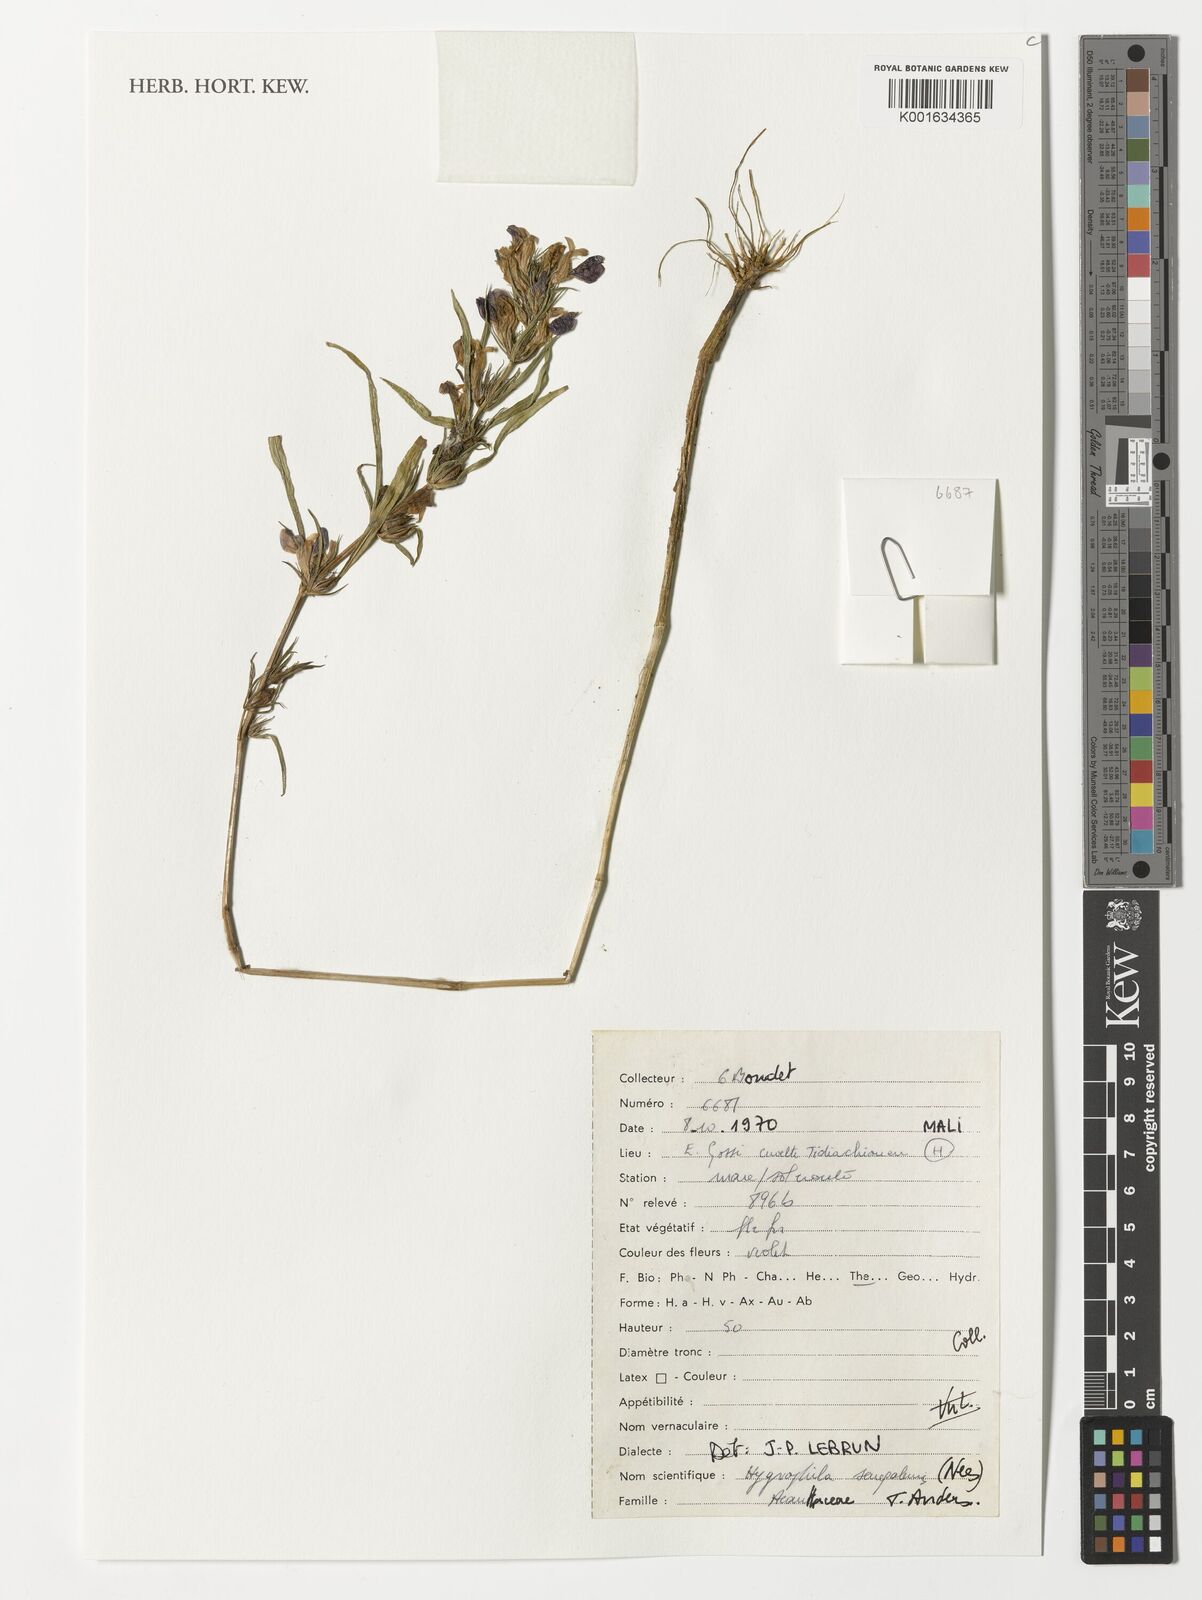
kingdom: Plantae
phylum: Tracheophyta
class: Magnoliopsida
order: Lamiales
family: Acanthaceae
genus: Hygrophila
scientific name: Hygrophila serpyllum
